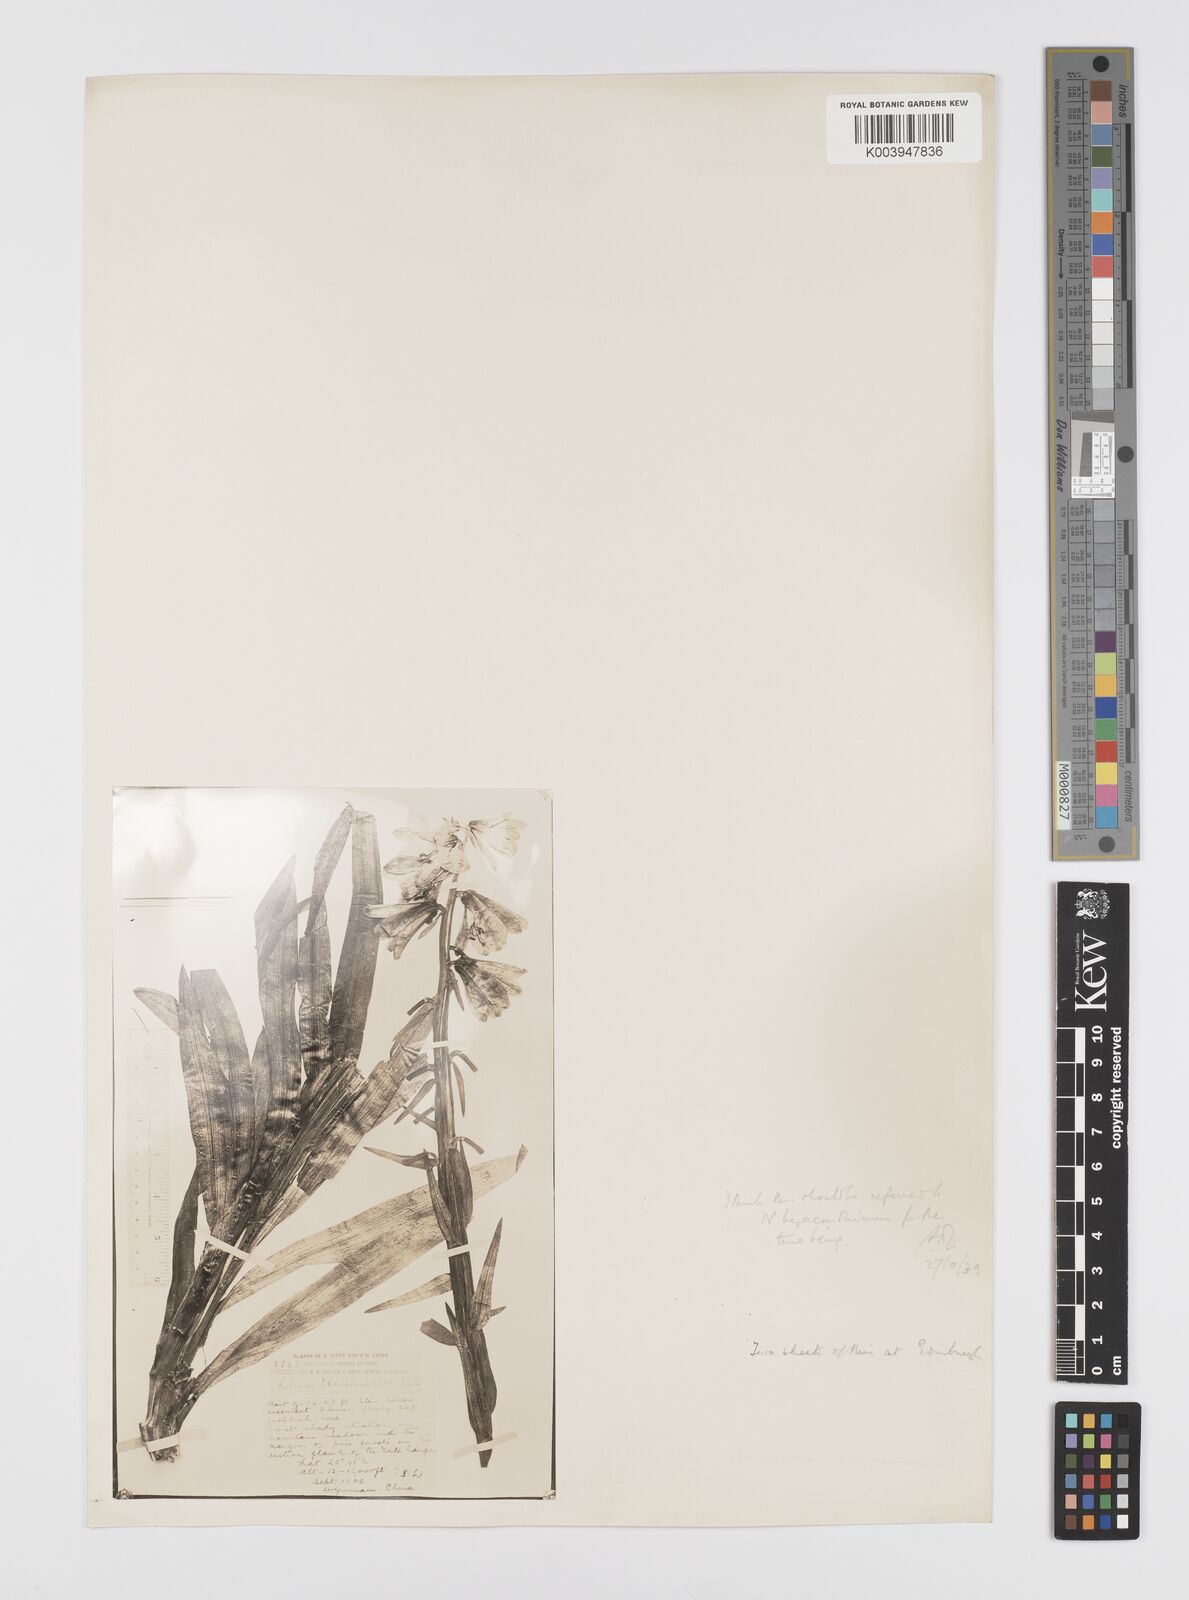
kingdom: Plantae
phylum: Tracheophyta
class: Liliopsida
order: Liliales
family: Liliaceae
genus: Notholirion
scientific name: Notholirion bulbuliferum
